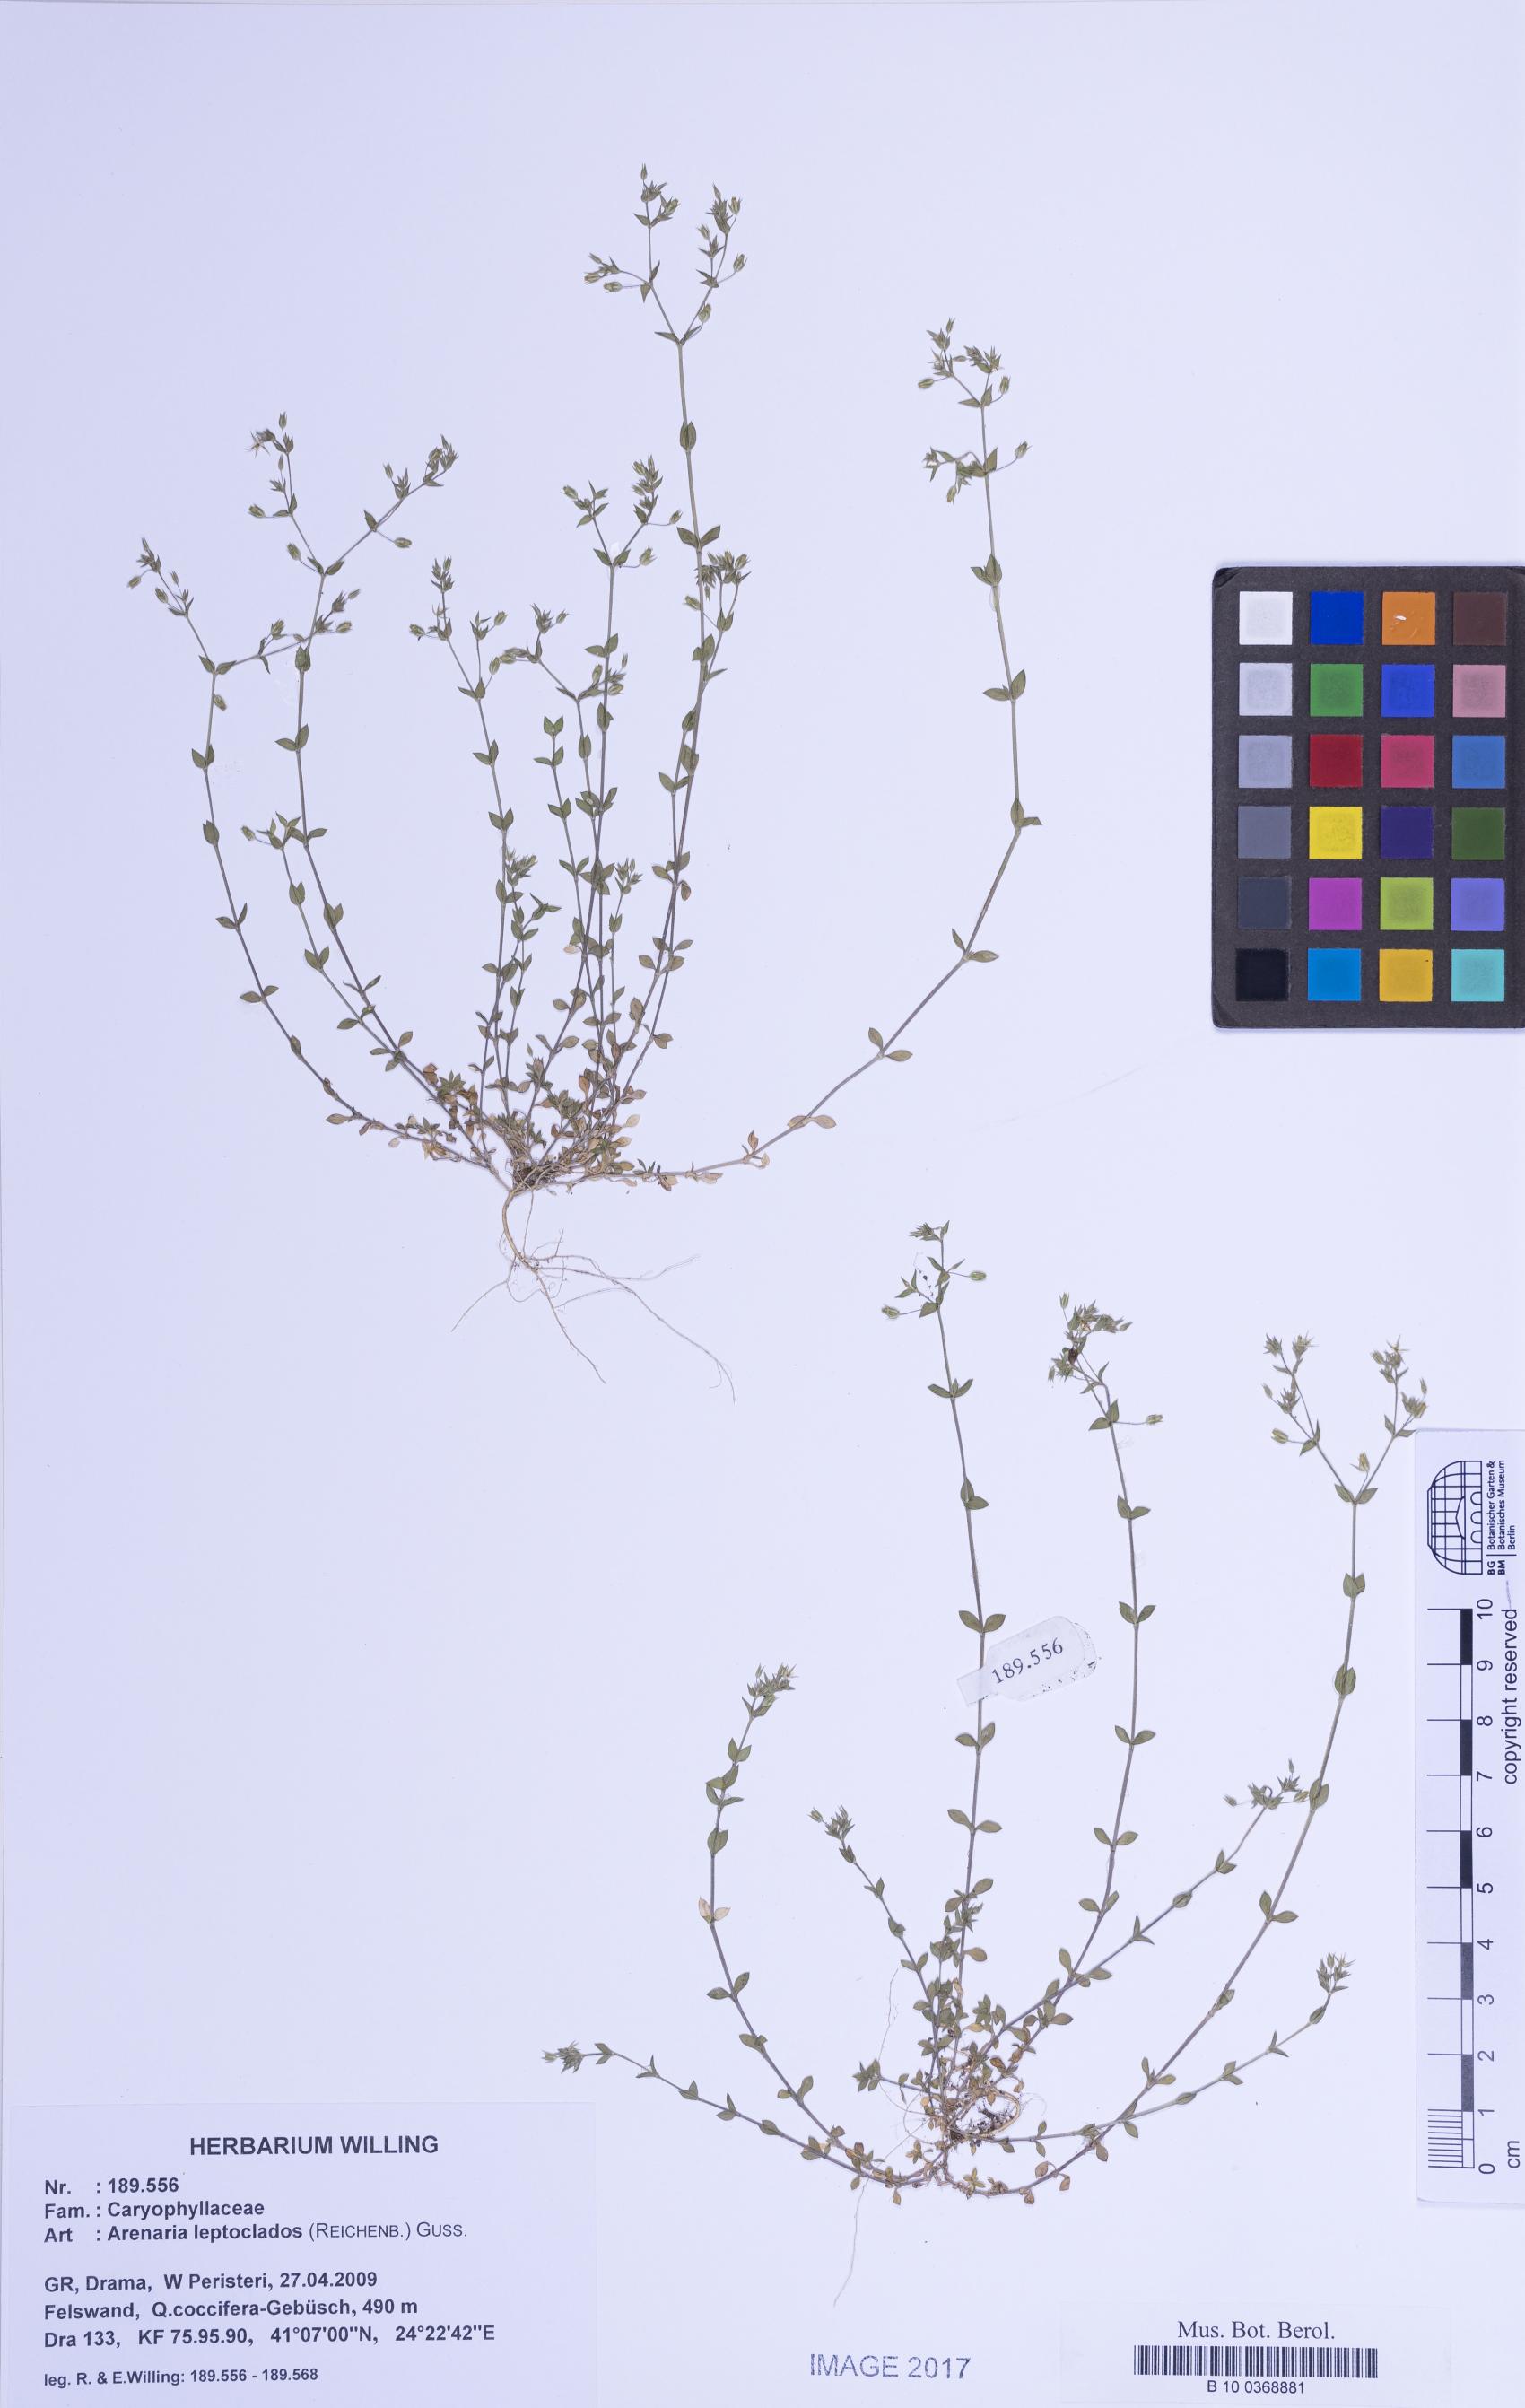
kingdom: Plantae
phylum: Tracheophyta
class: Magnoliopsida
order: Caryophyllales
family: Caryophyllaceae
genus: Arenaria
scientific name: Arenaria leptoclados
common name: Thyme-leaved sandwort
